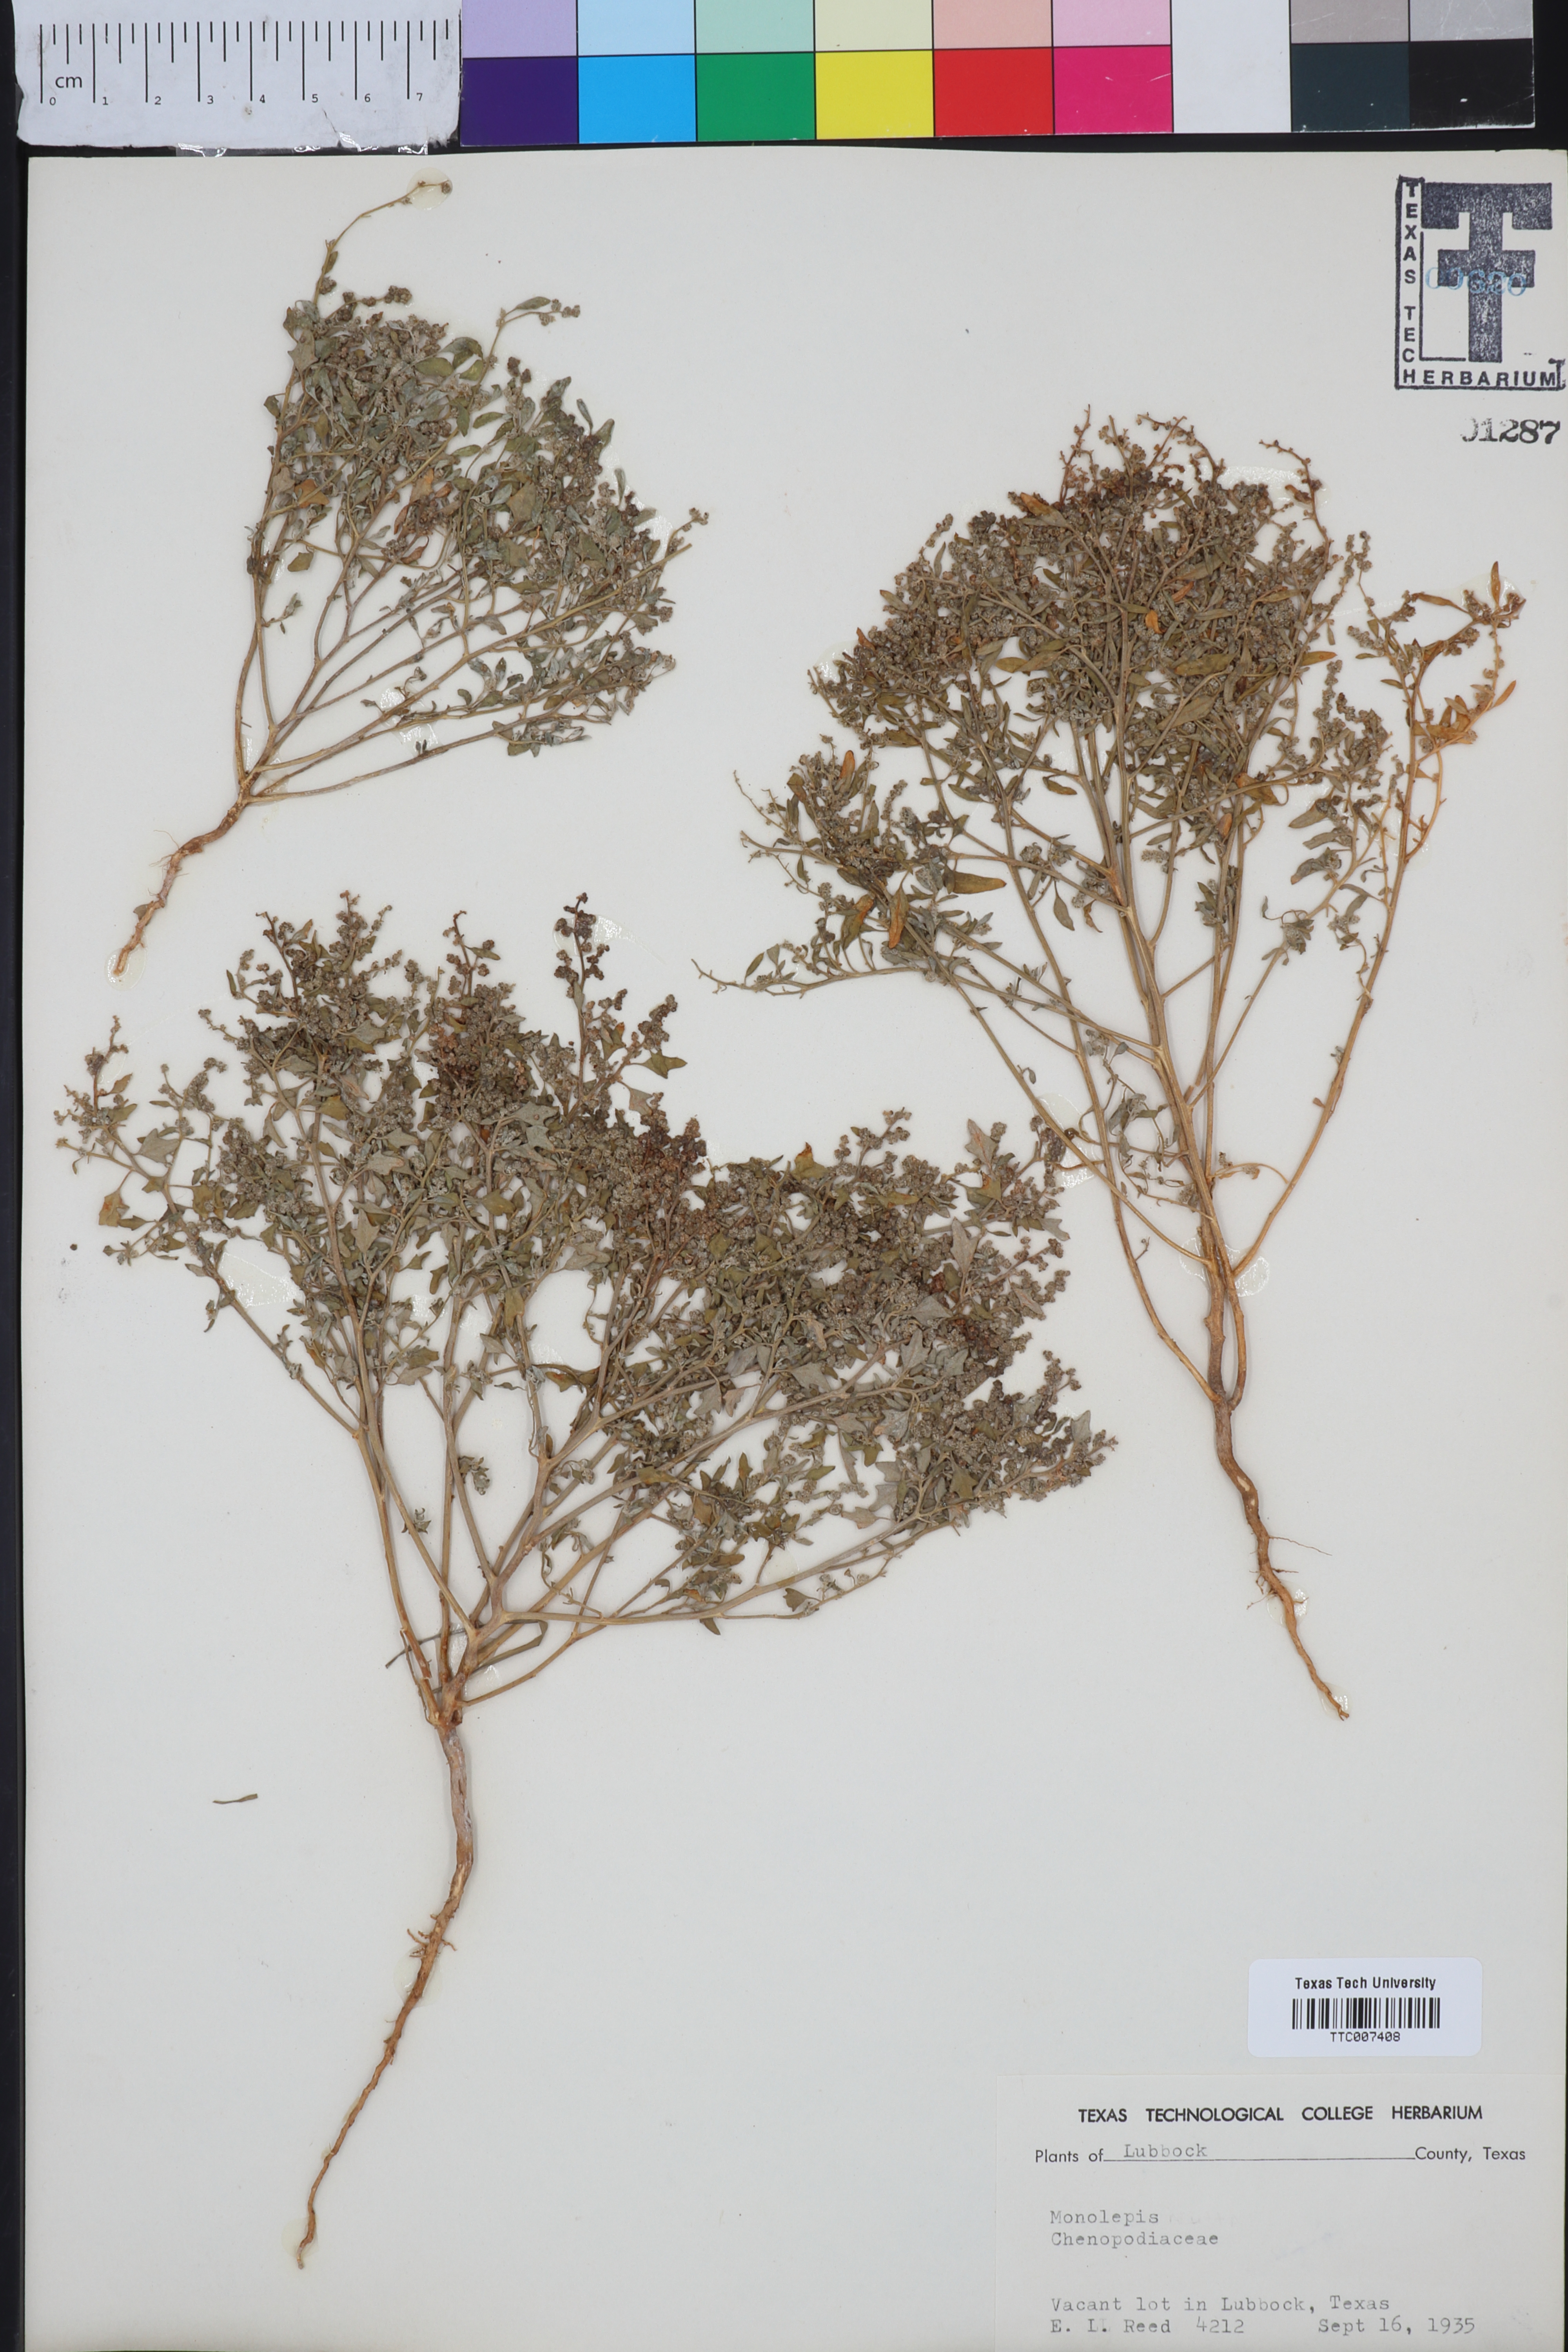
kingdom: Plantae
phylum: Tracheophyta
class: Magnoliopsida
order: Caryophyllales
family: Amaranthaceae
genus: Blitum
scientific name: Blitum
